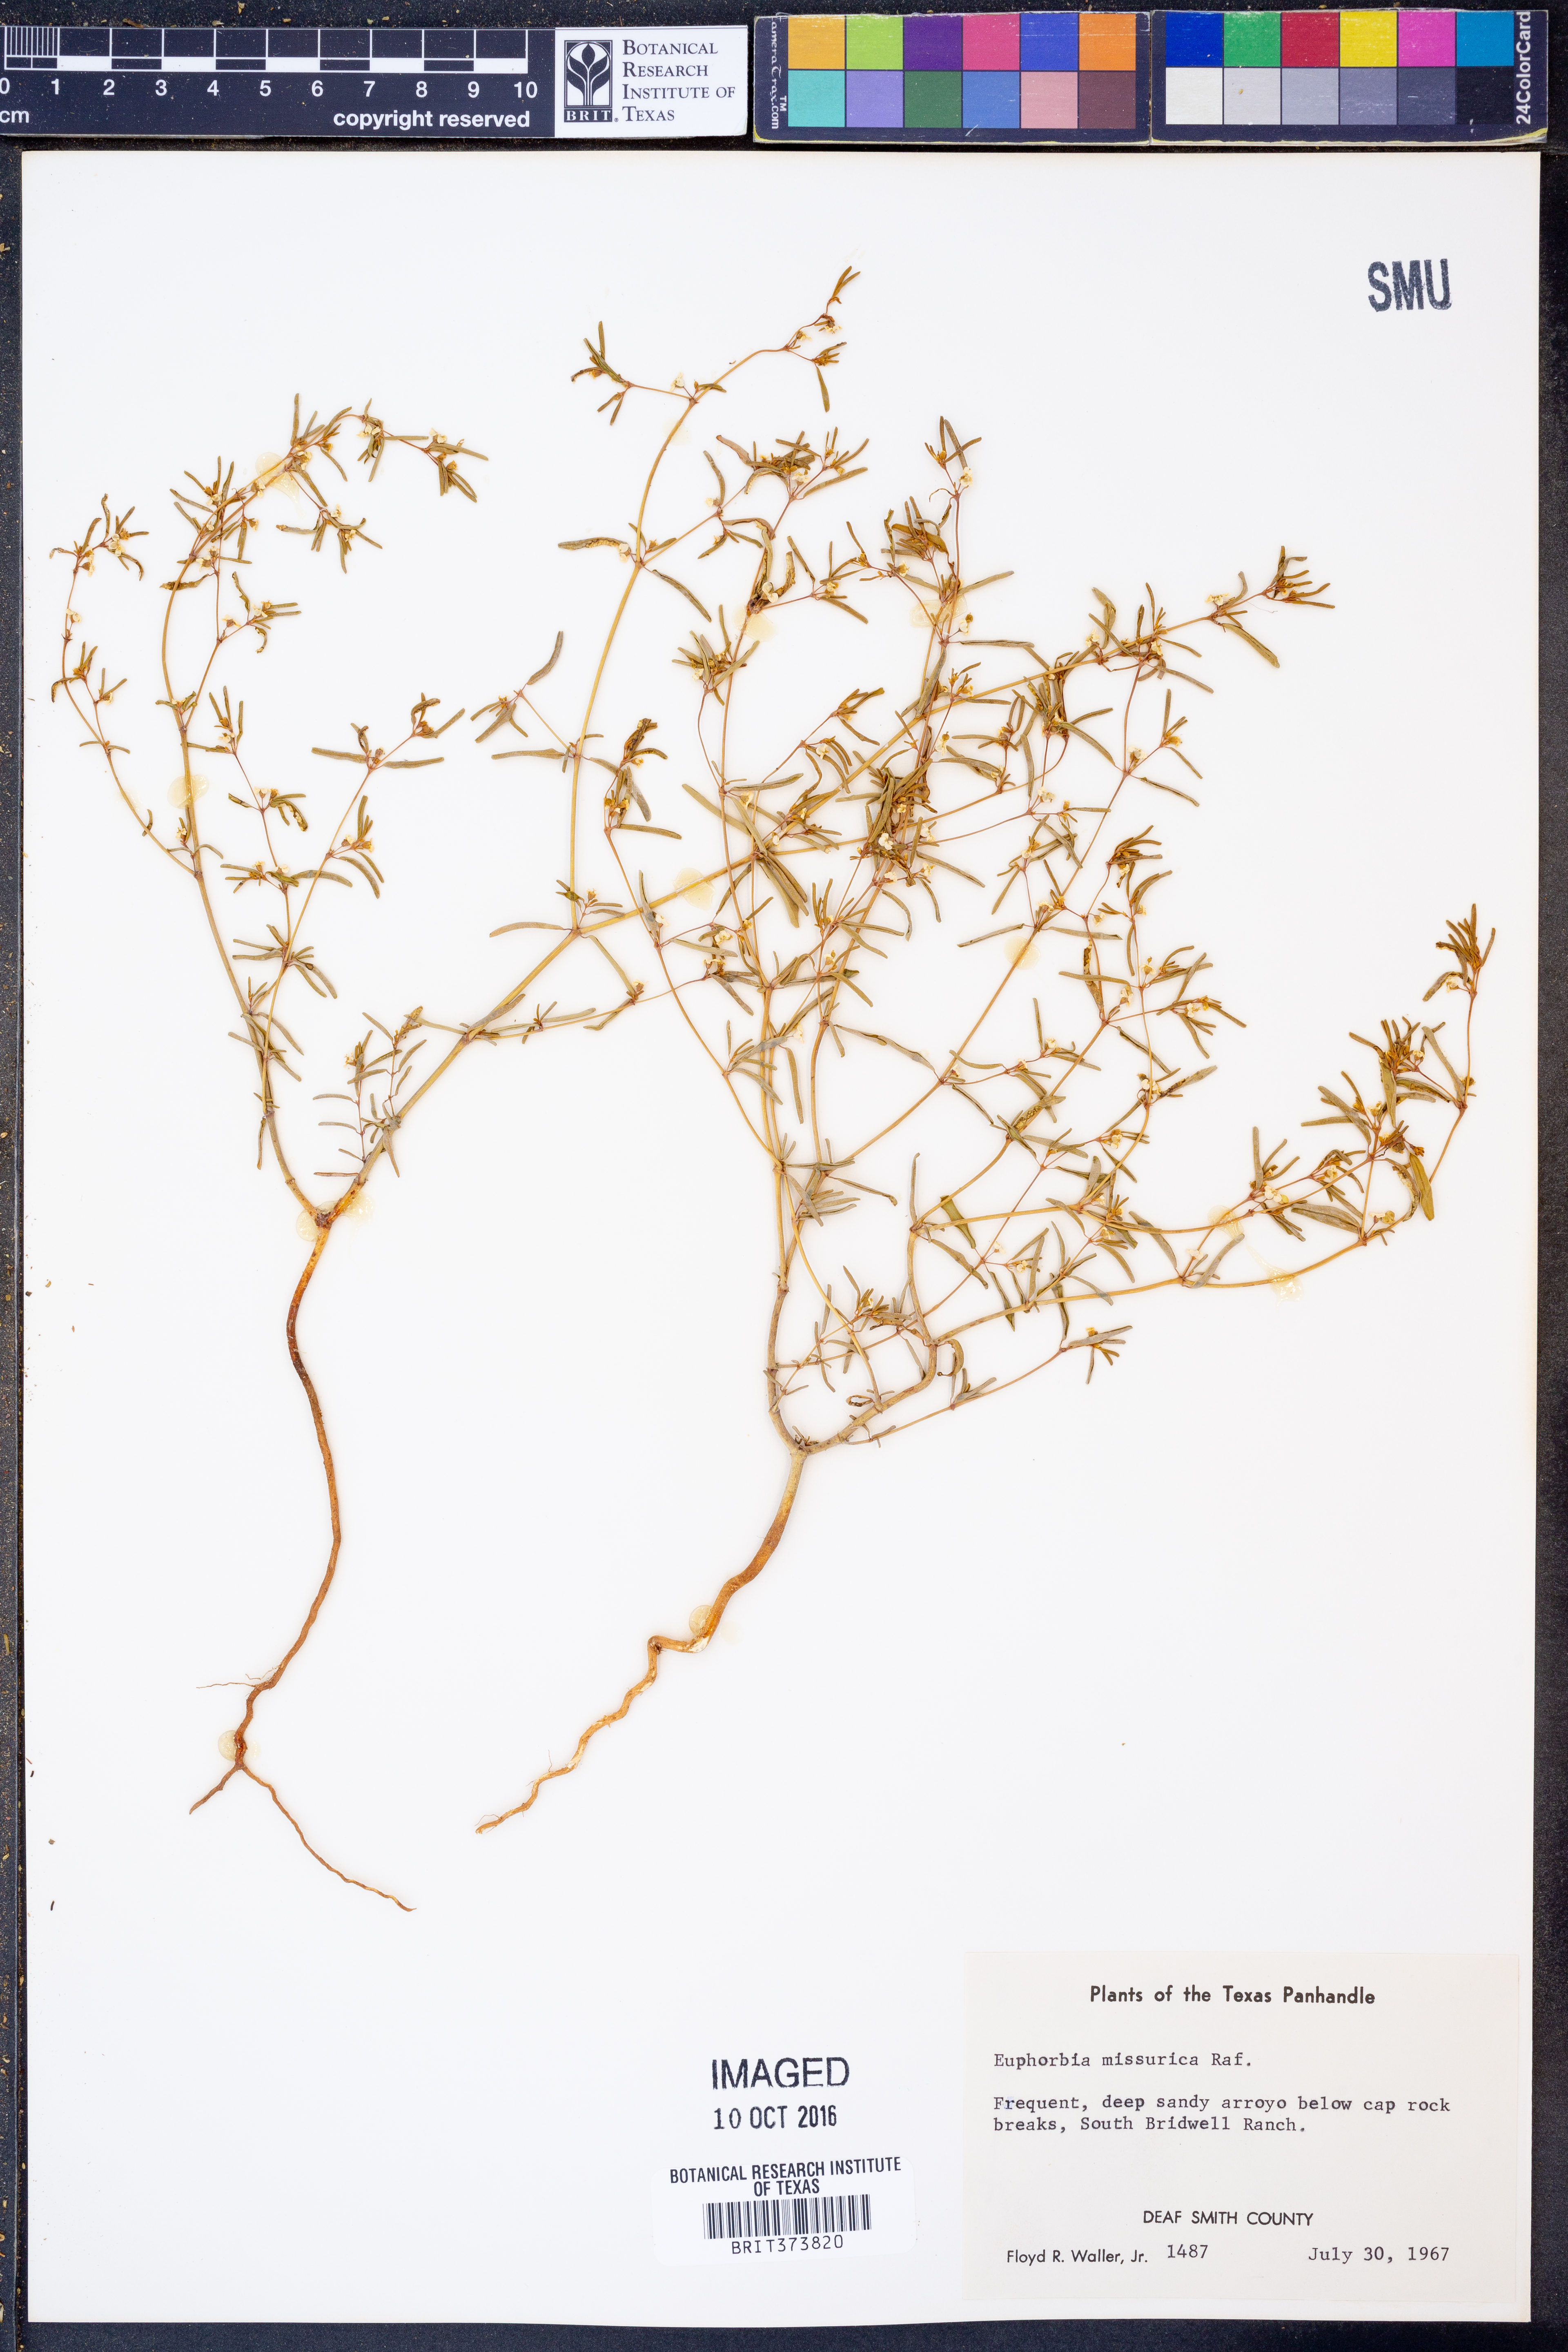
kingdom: Plantae
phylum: Tracheophyta
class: Magnoliopsida
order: Malpighiales
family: Euphorbiaceae
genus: Euphorbia
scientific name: Euphorbia missurica
